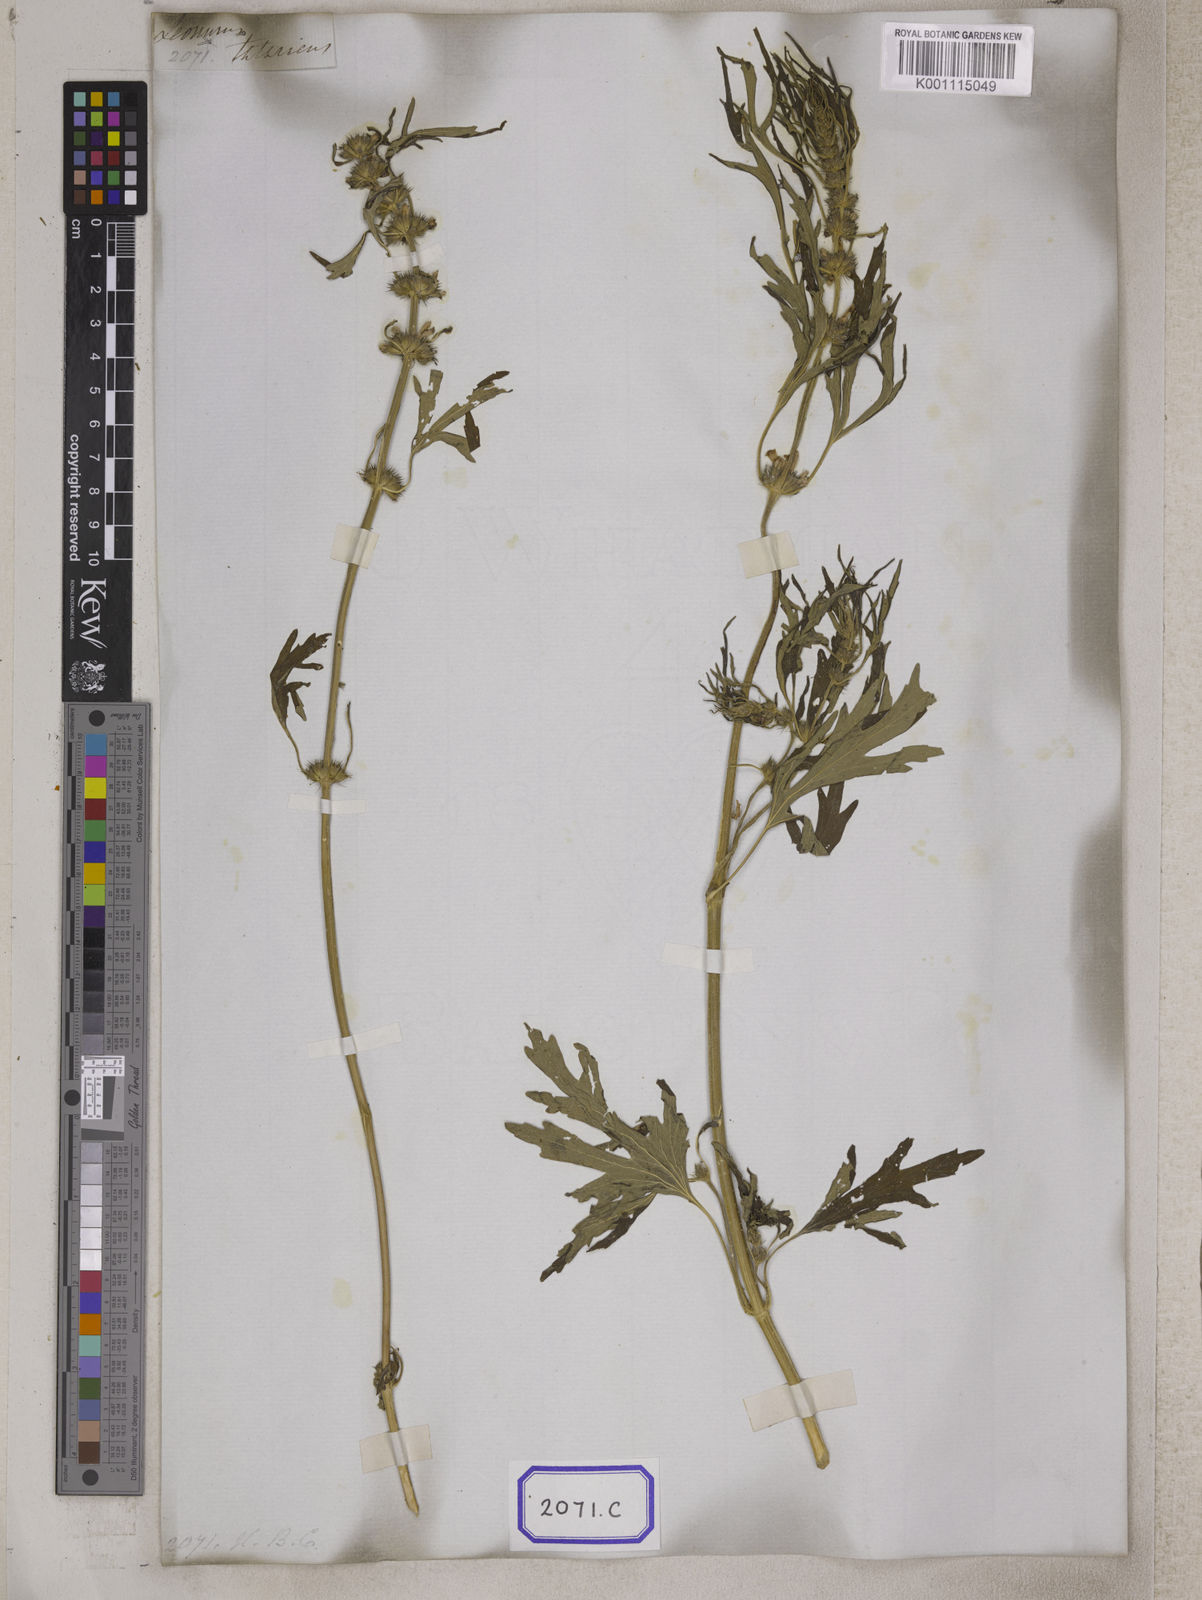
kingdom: Plantae
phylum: Tracheophyta
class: Magnoliopsida
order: Lamiales
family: Lamiaceae
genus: Leonurus
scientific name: Leonurus sibiricus
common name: Honeyweed
